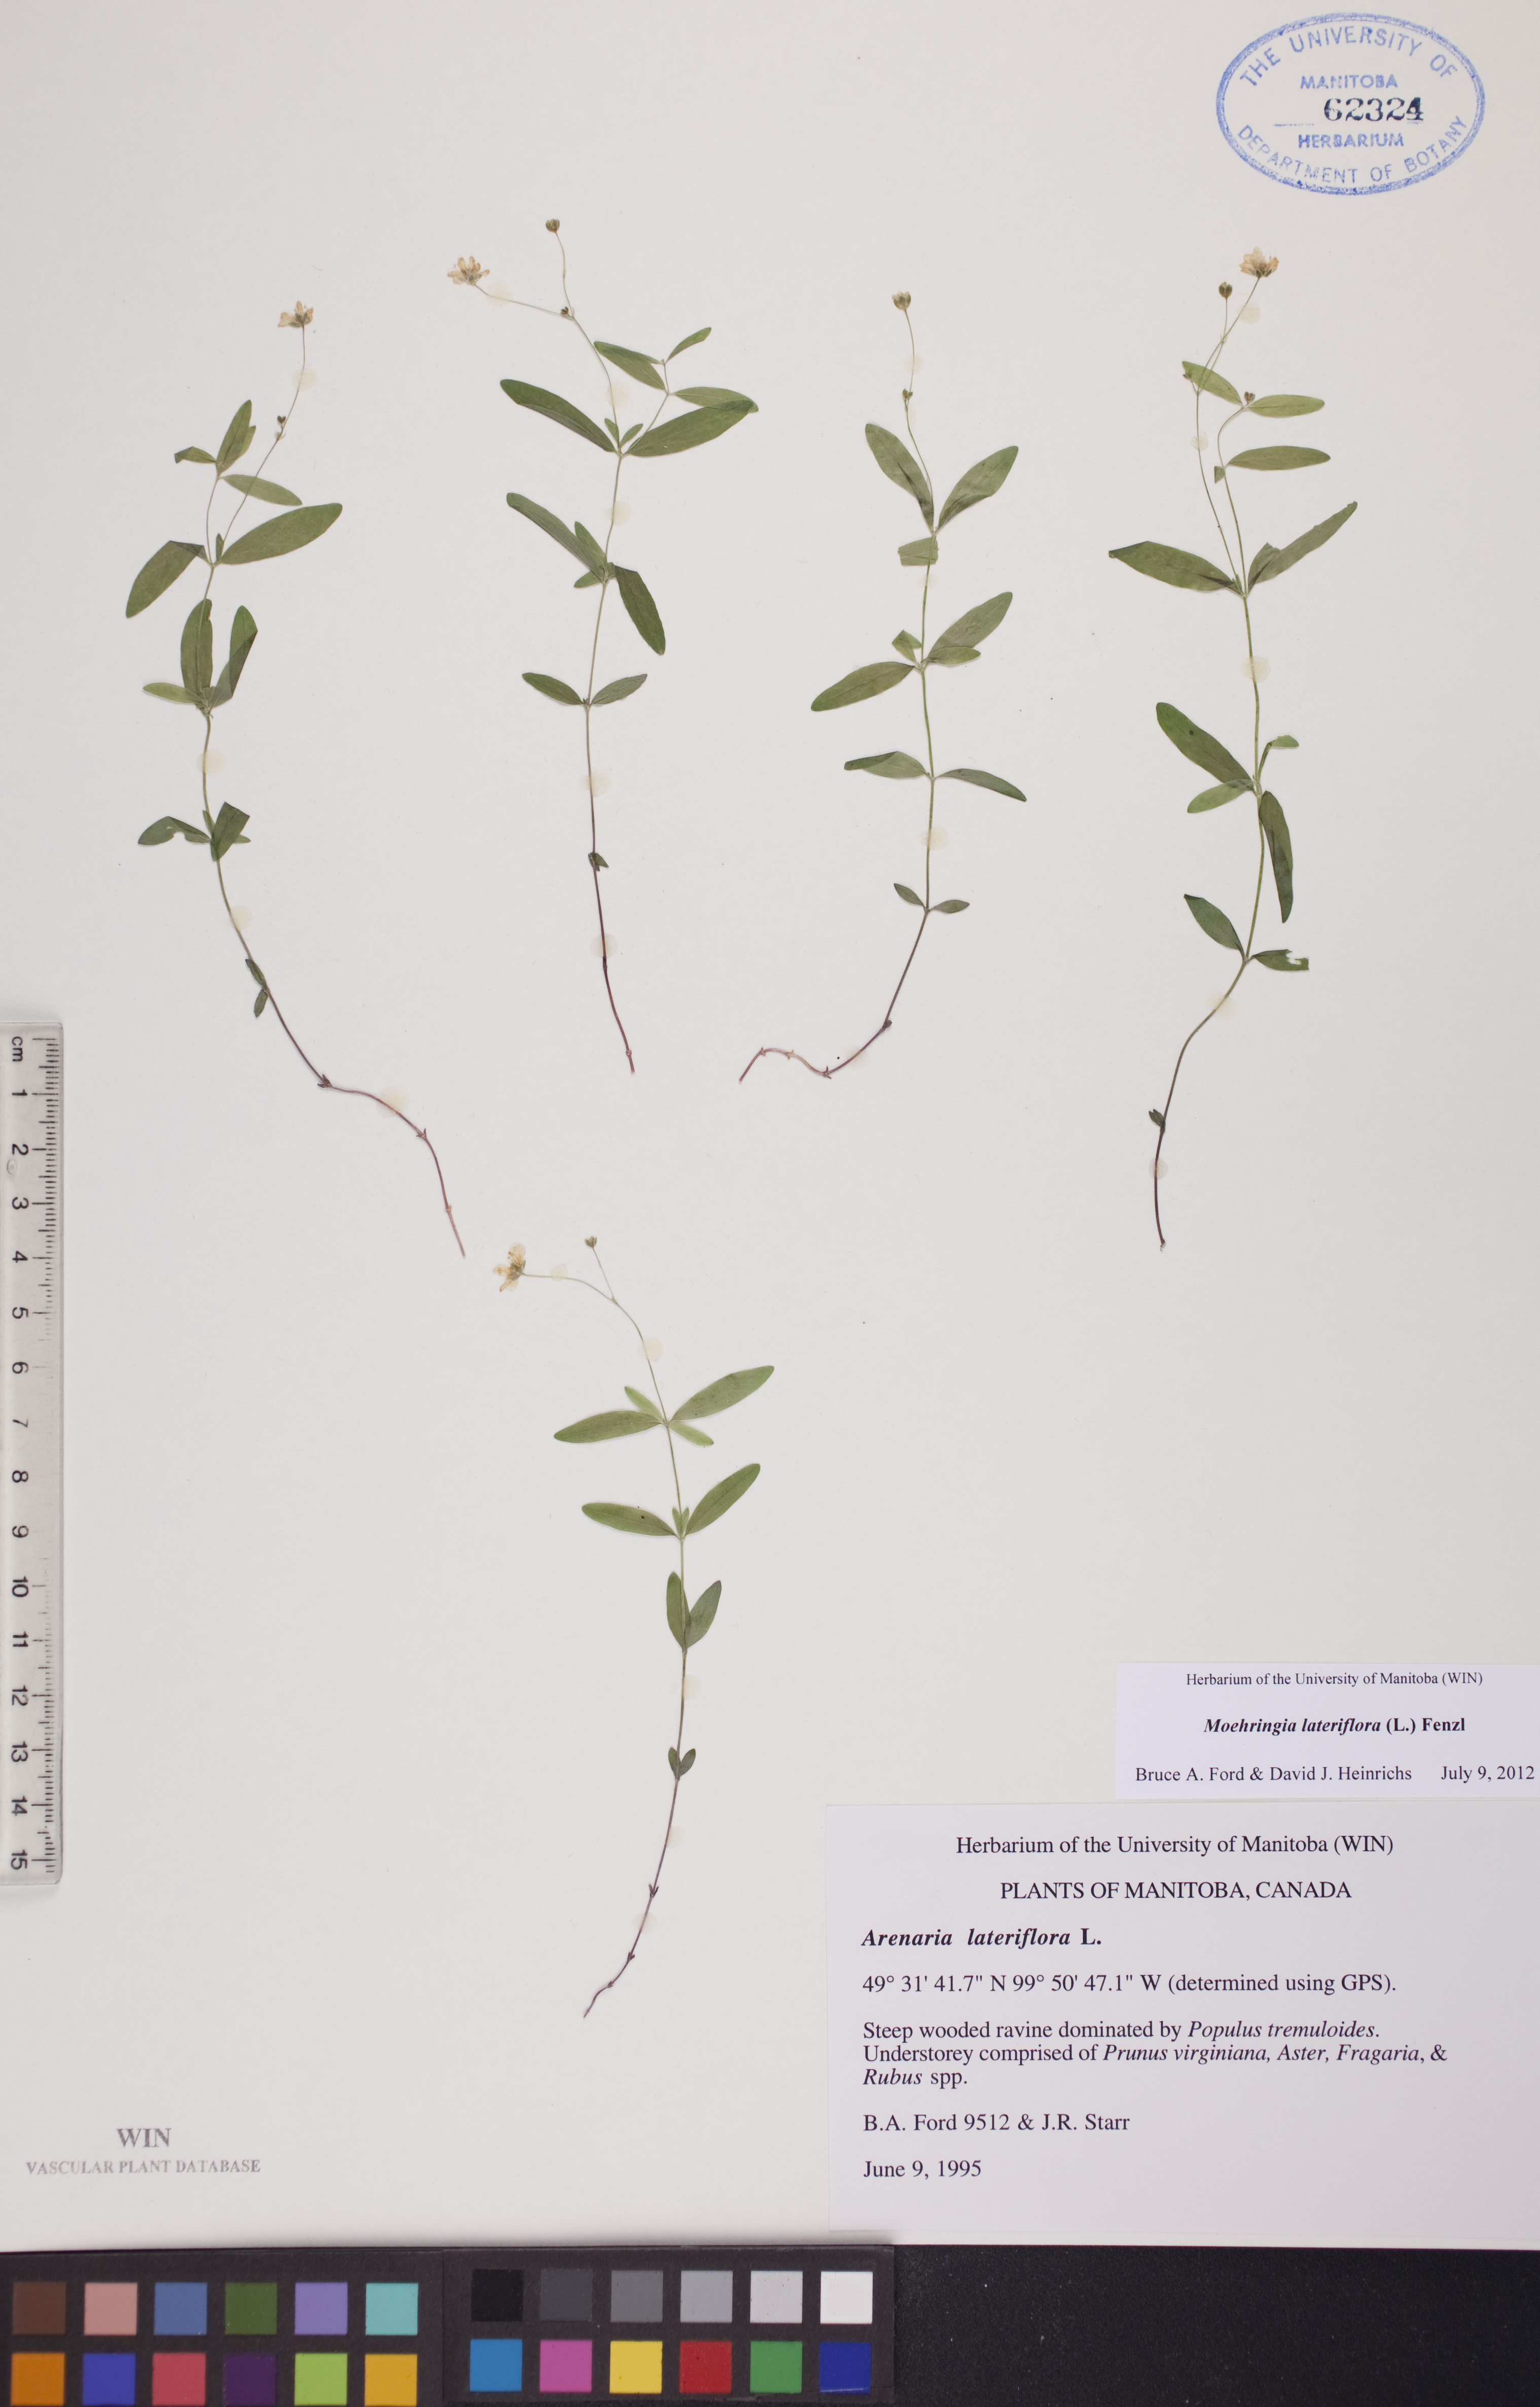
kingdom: Plantae
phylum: Tracheophyta
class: Magnoliopsida
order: Caryophyllales
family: Caryophyllaceae
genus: Moehringia
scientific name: Moehringia lateriflora
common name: Blunt-leaved sandwort
